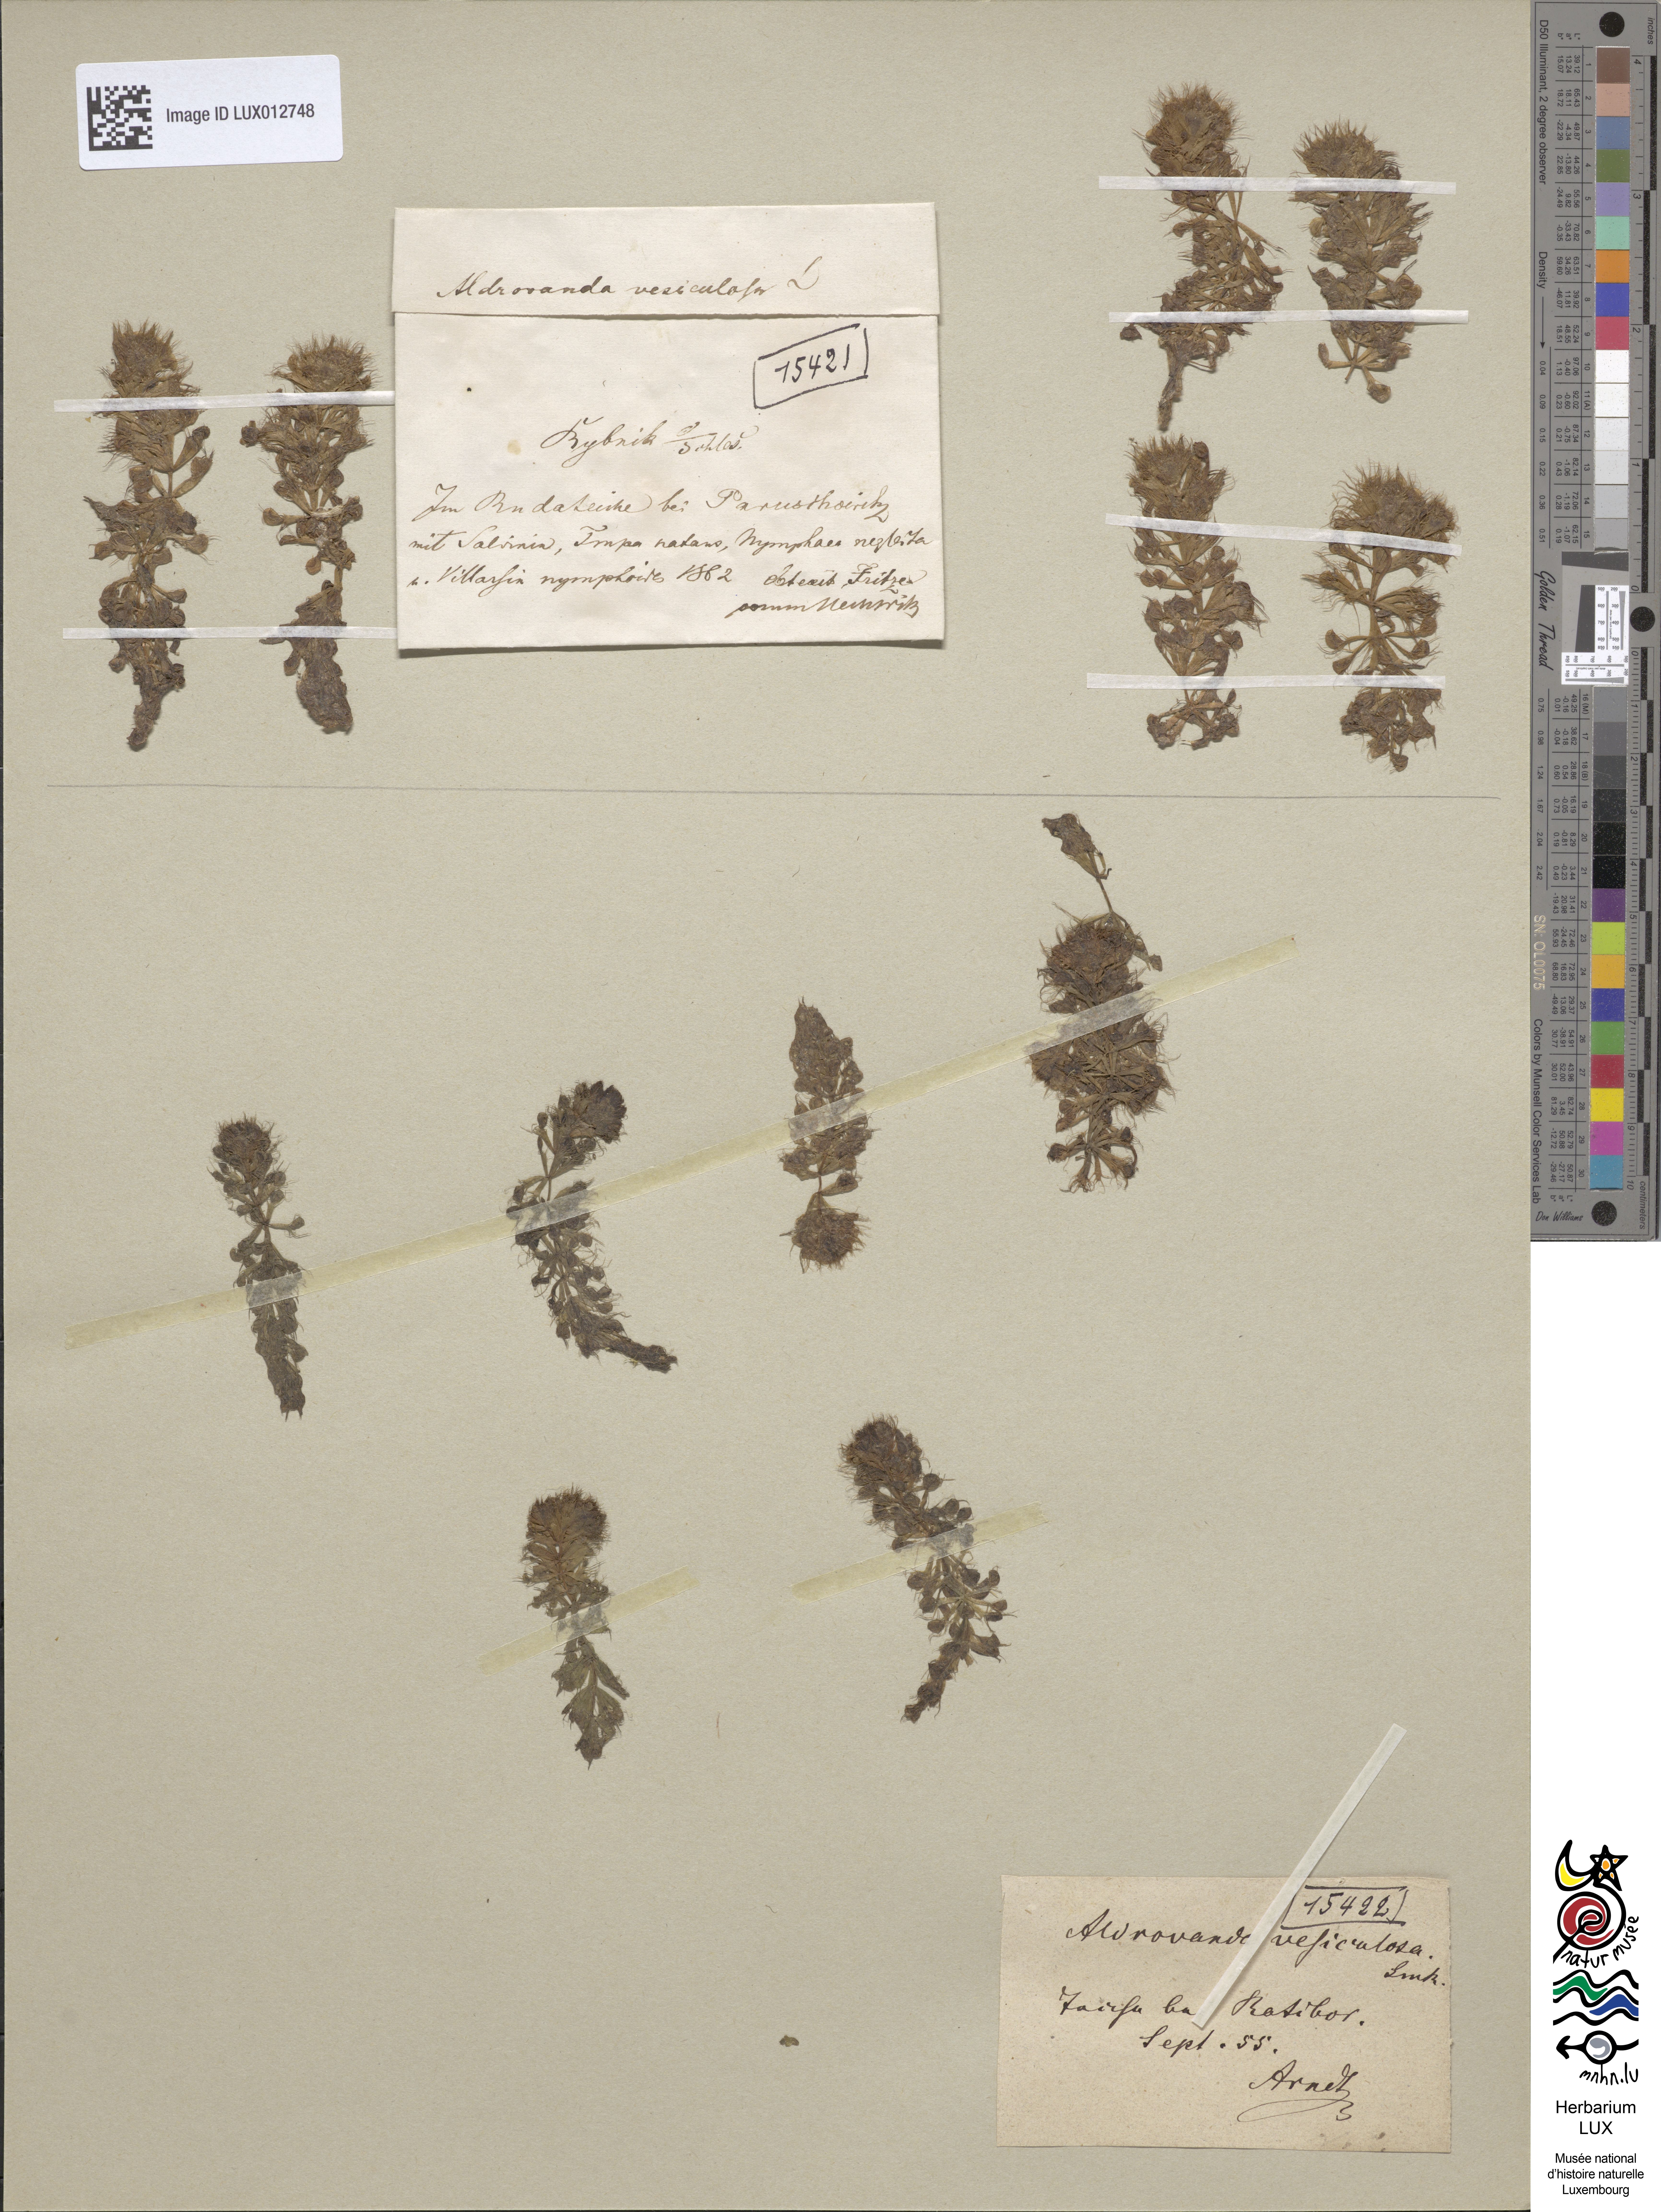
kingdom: Plantae
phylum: Tracheophyta
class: Magnoliopsida
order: Caryophyllales
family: Droseraceae
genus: Aldrovanda
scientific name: Aldrovanda vesiculosa
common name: Waterwheel plant
